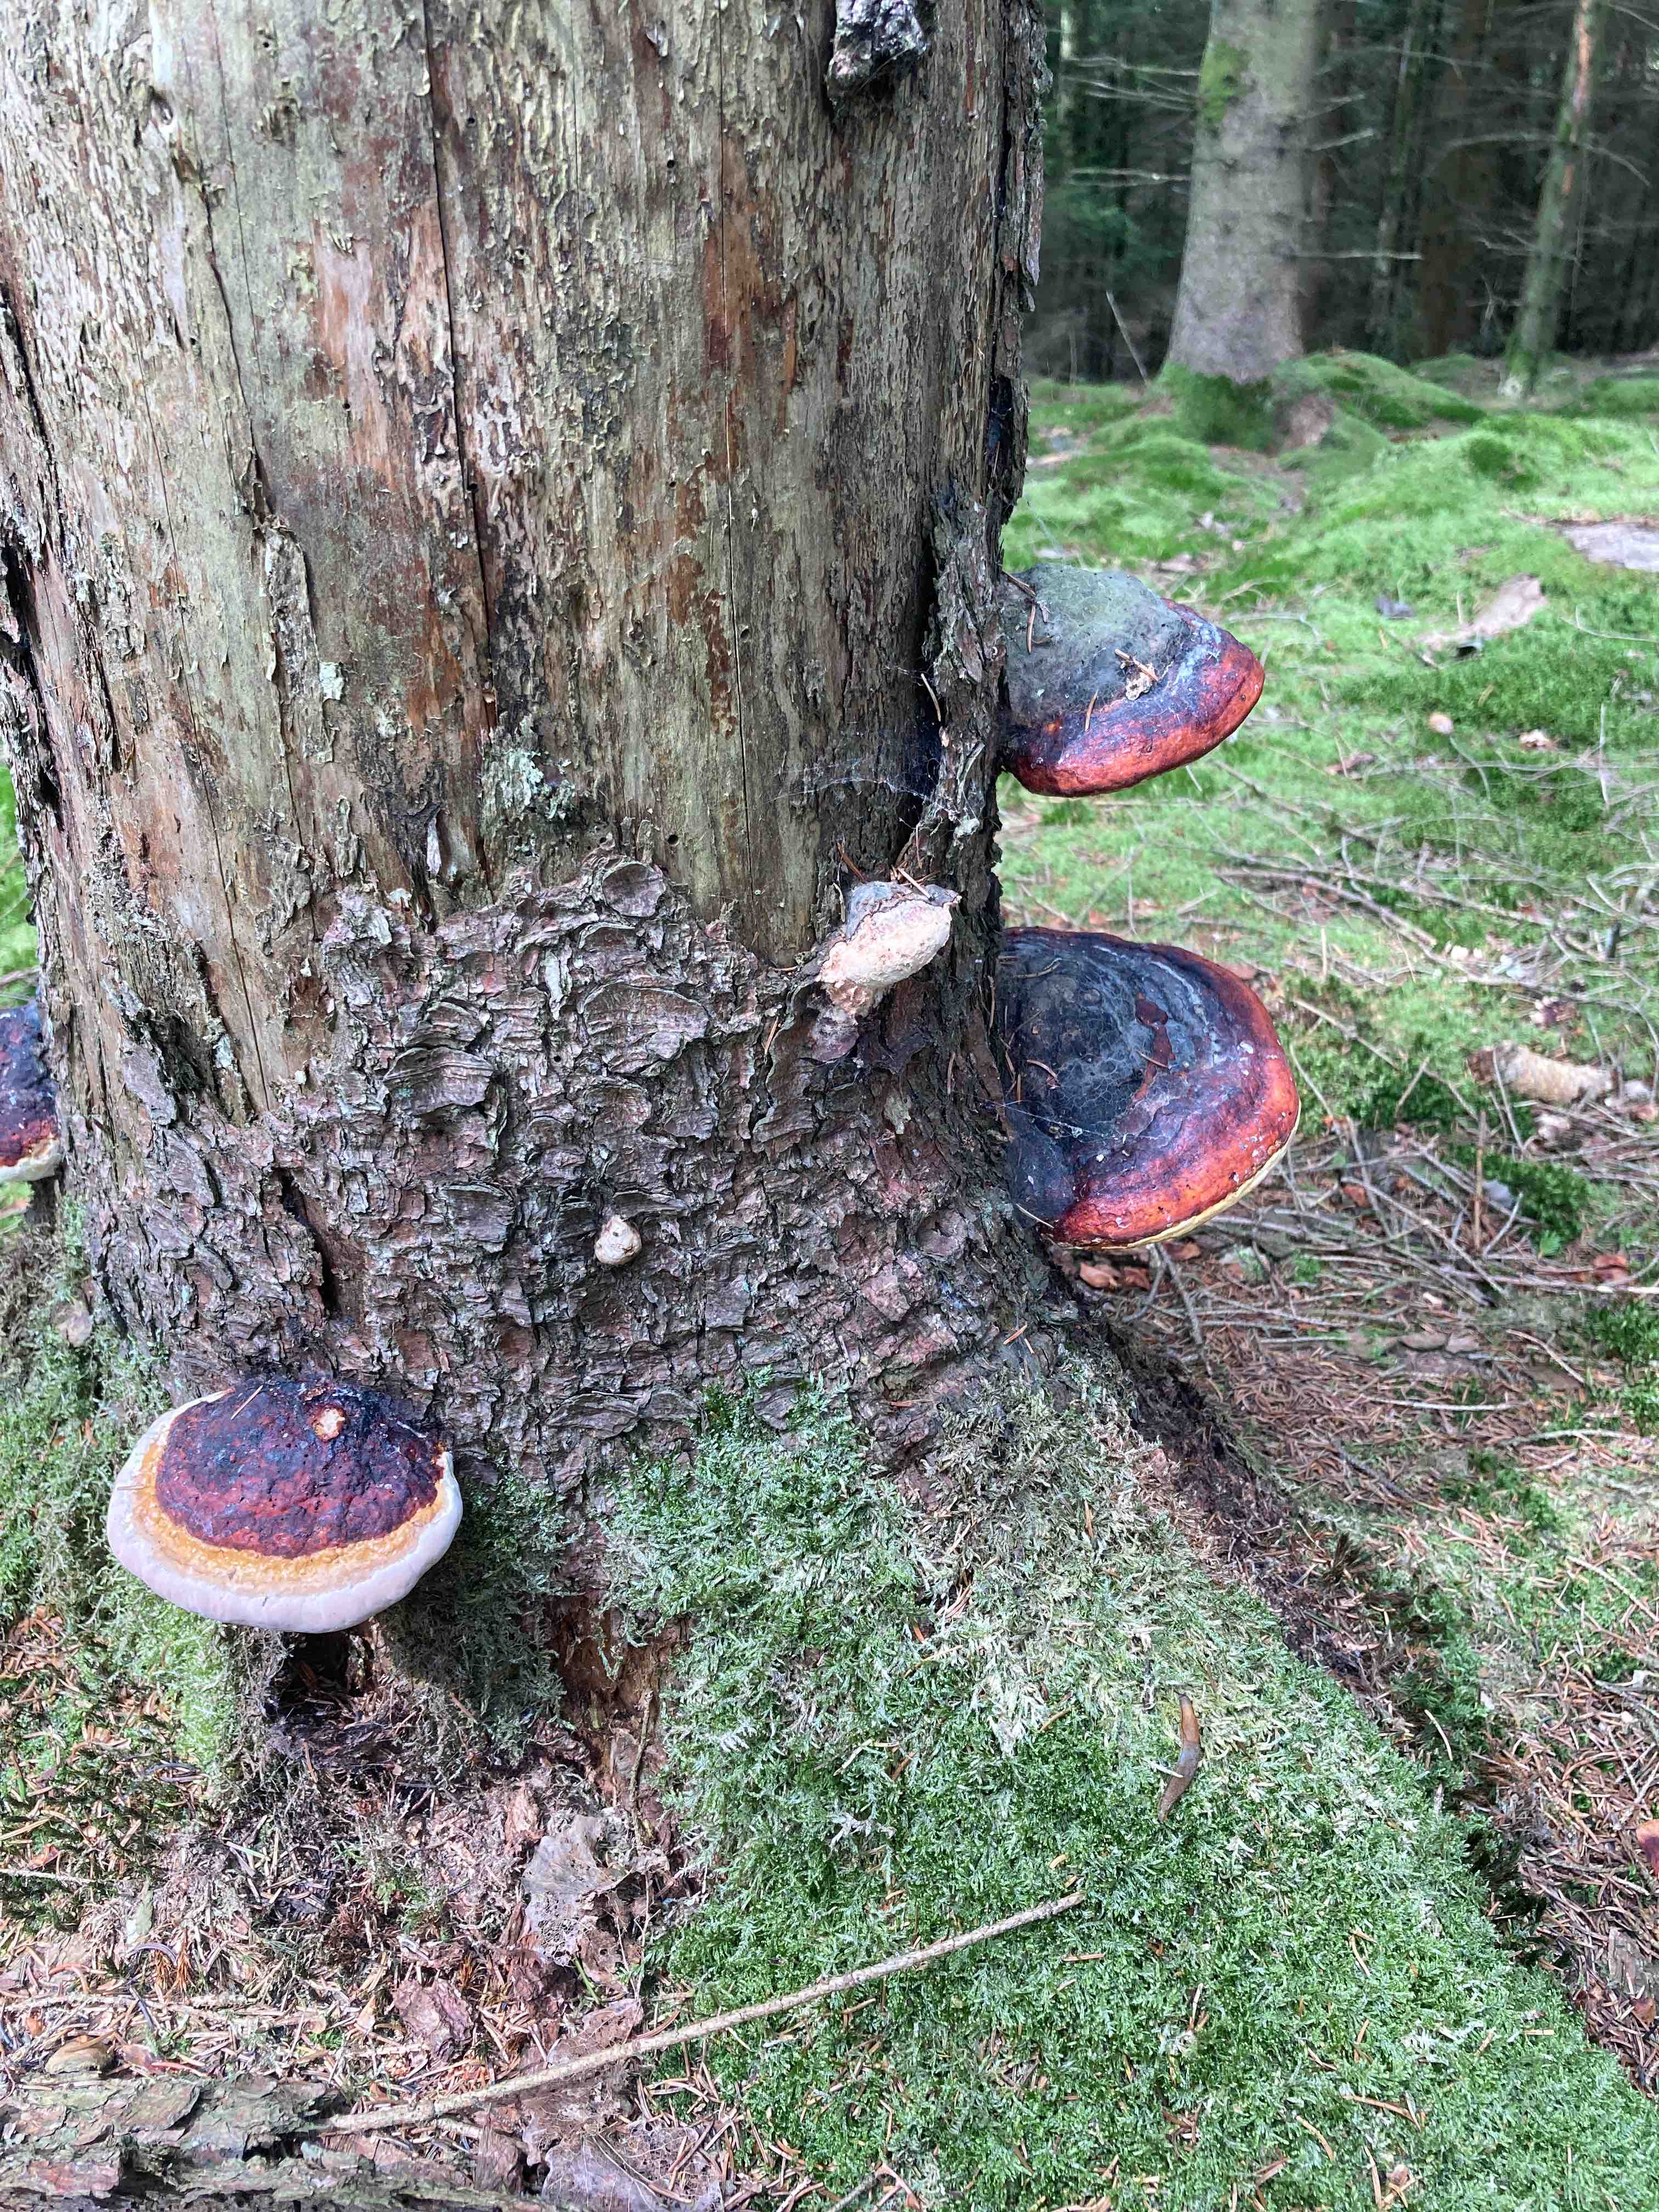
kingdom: Fungi
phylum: Basidiomycota
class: Agaricomycetes
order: Polyporales
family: Fomitopsidaceae
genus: Fomitopsis
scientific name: Fomitopsis pinicola
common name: randbæltet hovporesvamp
